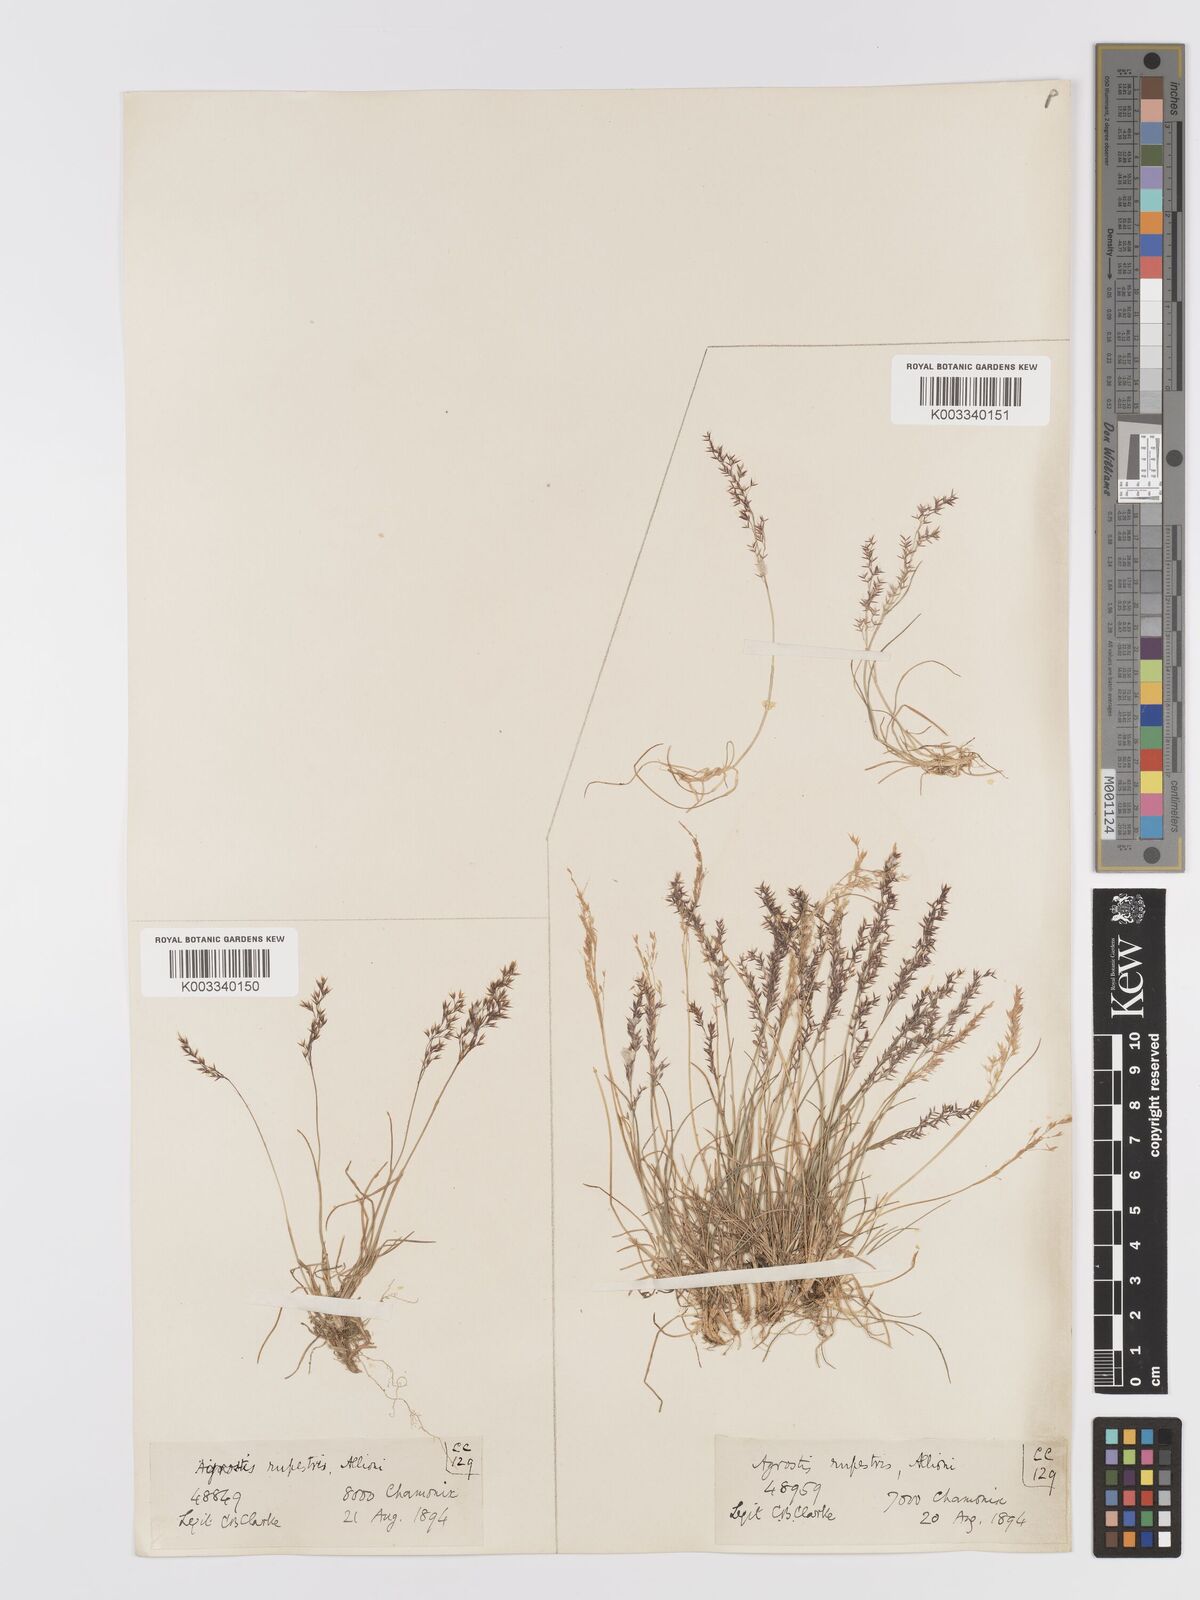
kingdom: Plantae
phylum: Tracheophyta
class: Liliopsida
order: Poales
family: Poaceae
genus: Agrostis
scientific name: Agrostis rupestris
